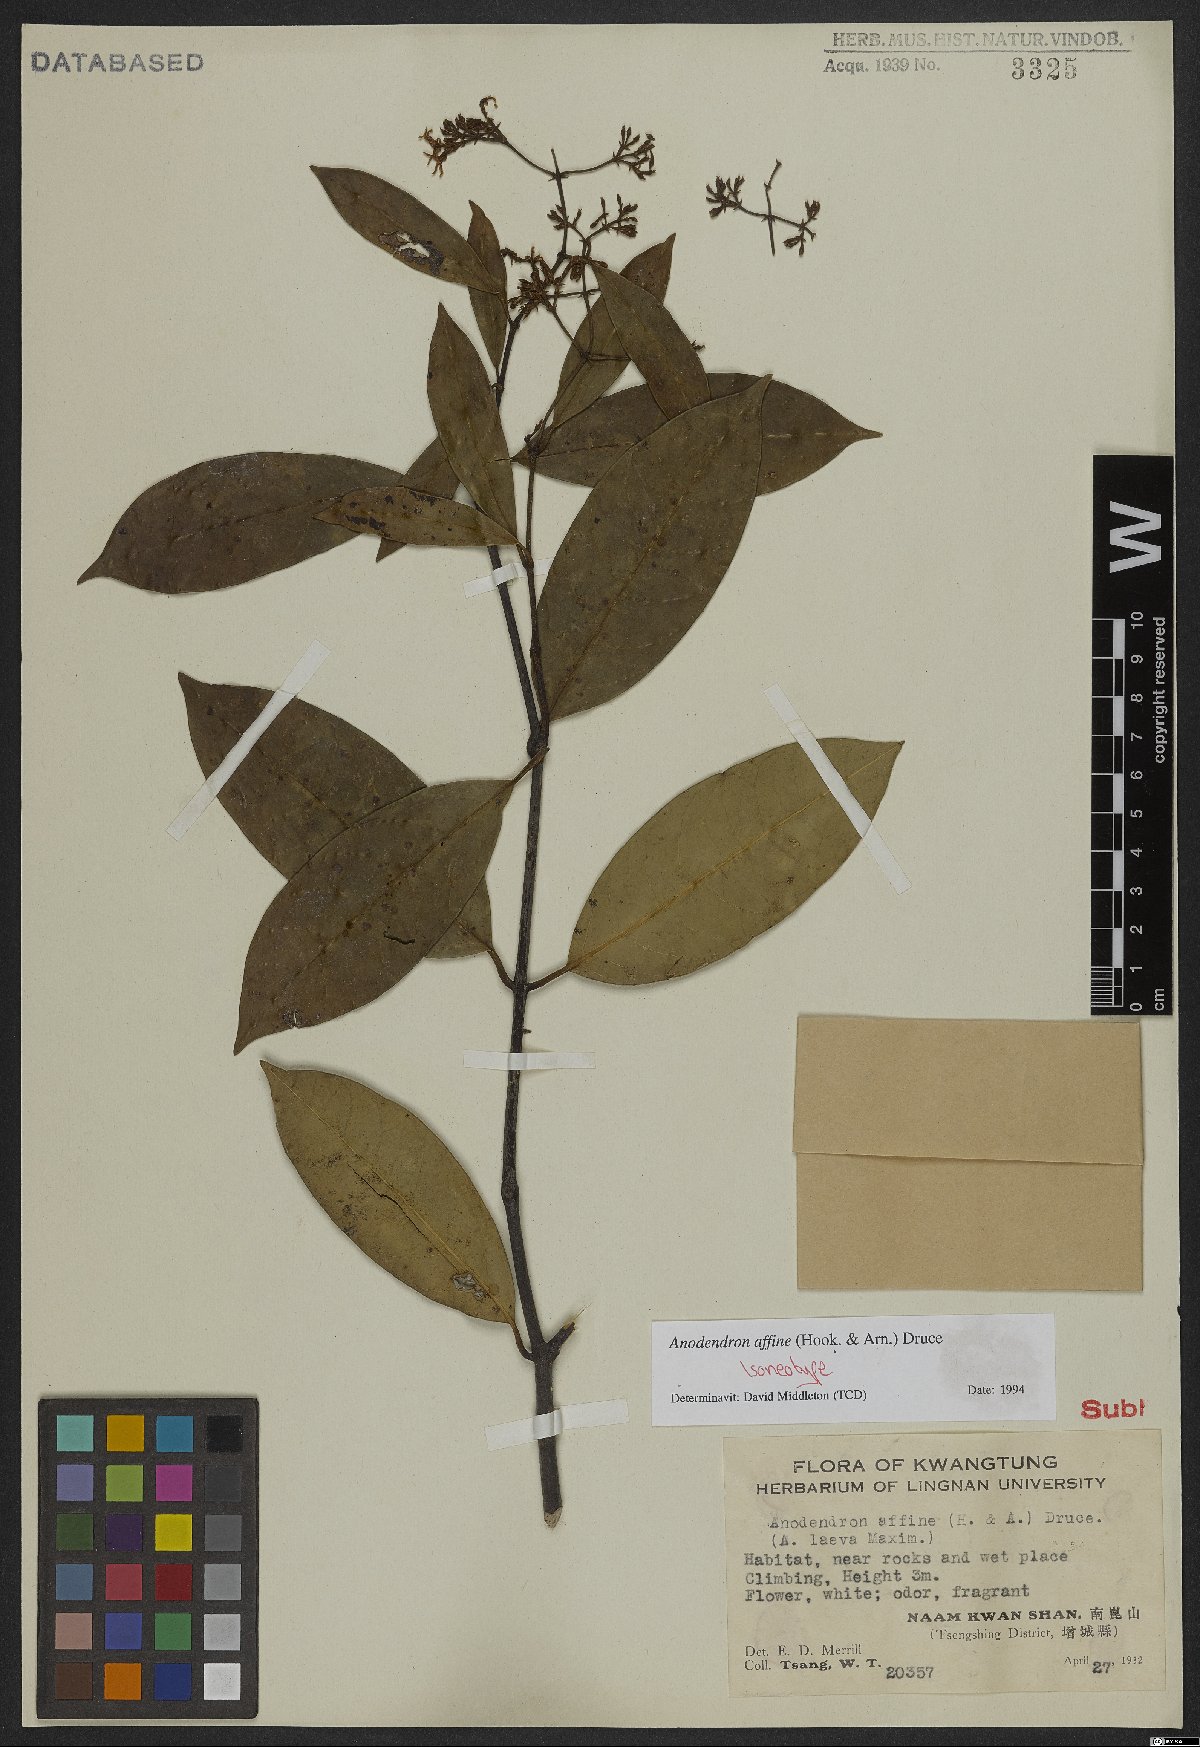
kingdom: Plantae
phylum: Tracheophyta
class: Magnoliopsida
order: Gentianales
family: Apocynaceae
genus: Anodendron
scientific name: Anodendron affine
